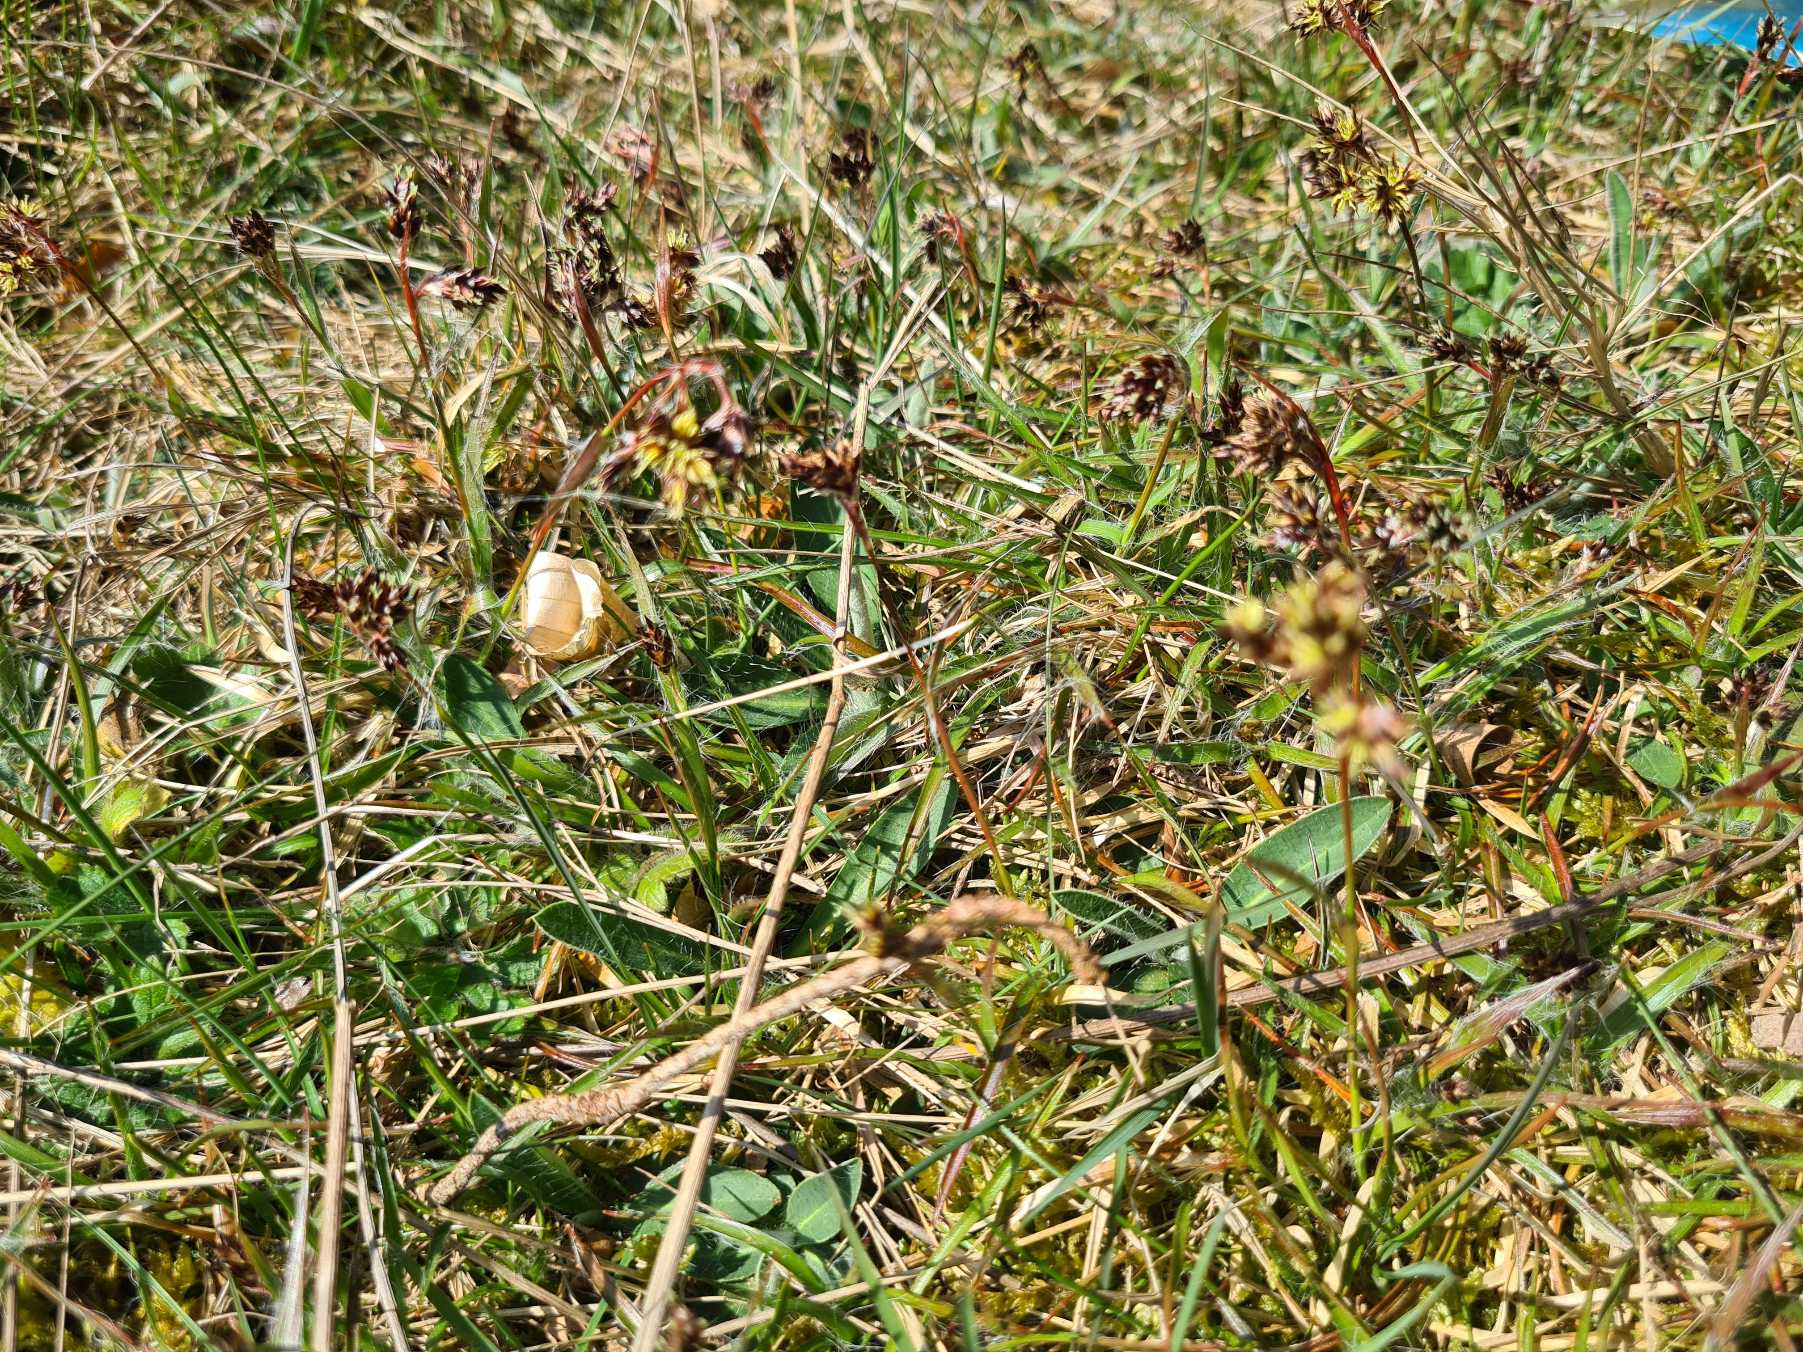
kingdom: Plantae
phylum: Tracheophyta
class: Liliopsida
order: Poales
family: Juncaceae
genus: Luzula
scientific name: Luzula campestris
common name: Mark-frytle
